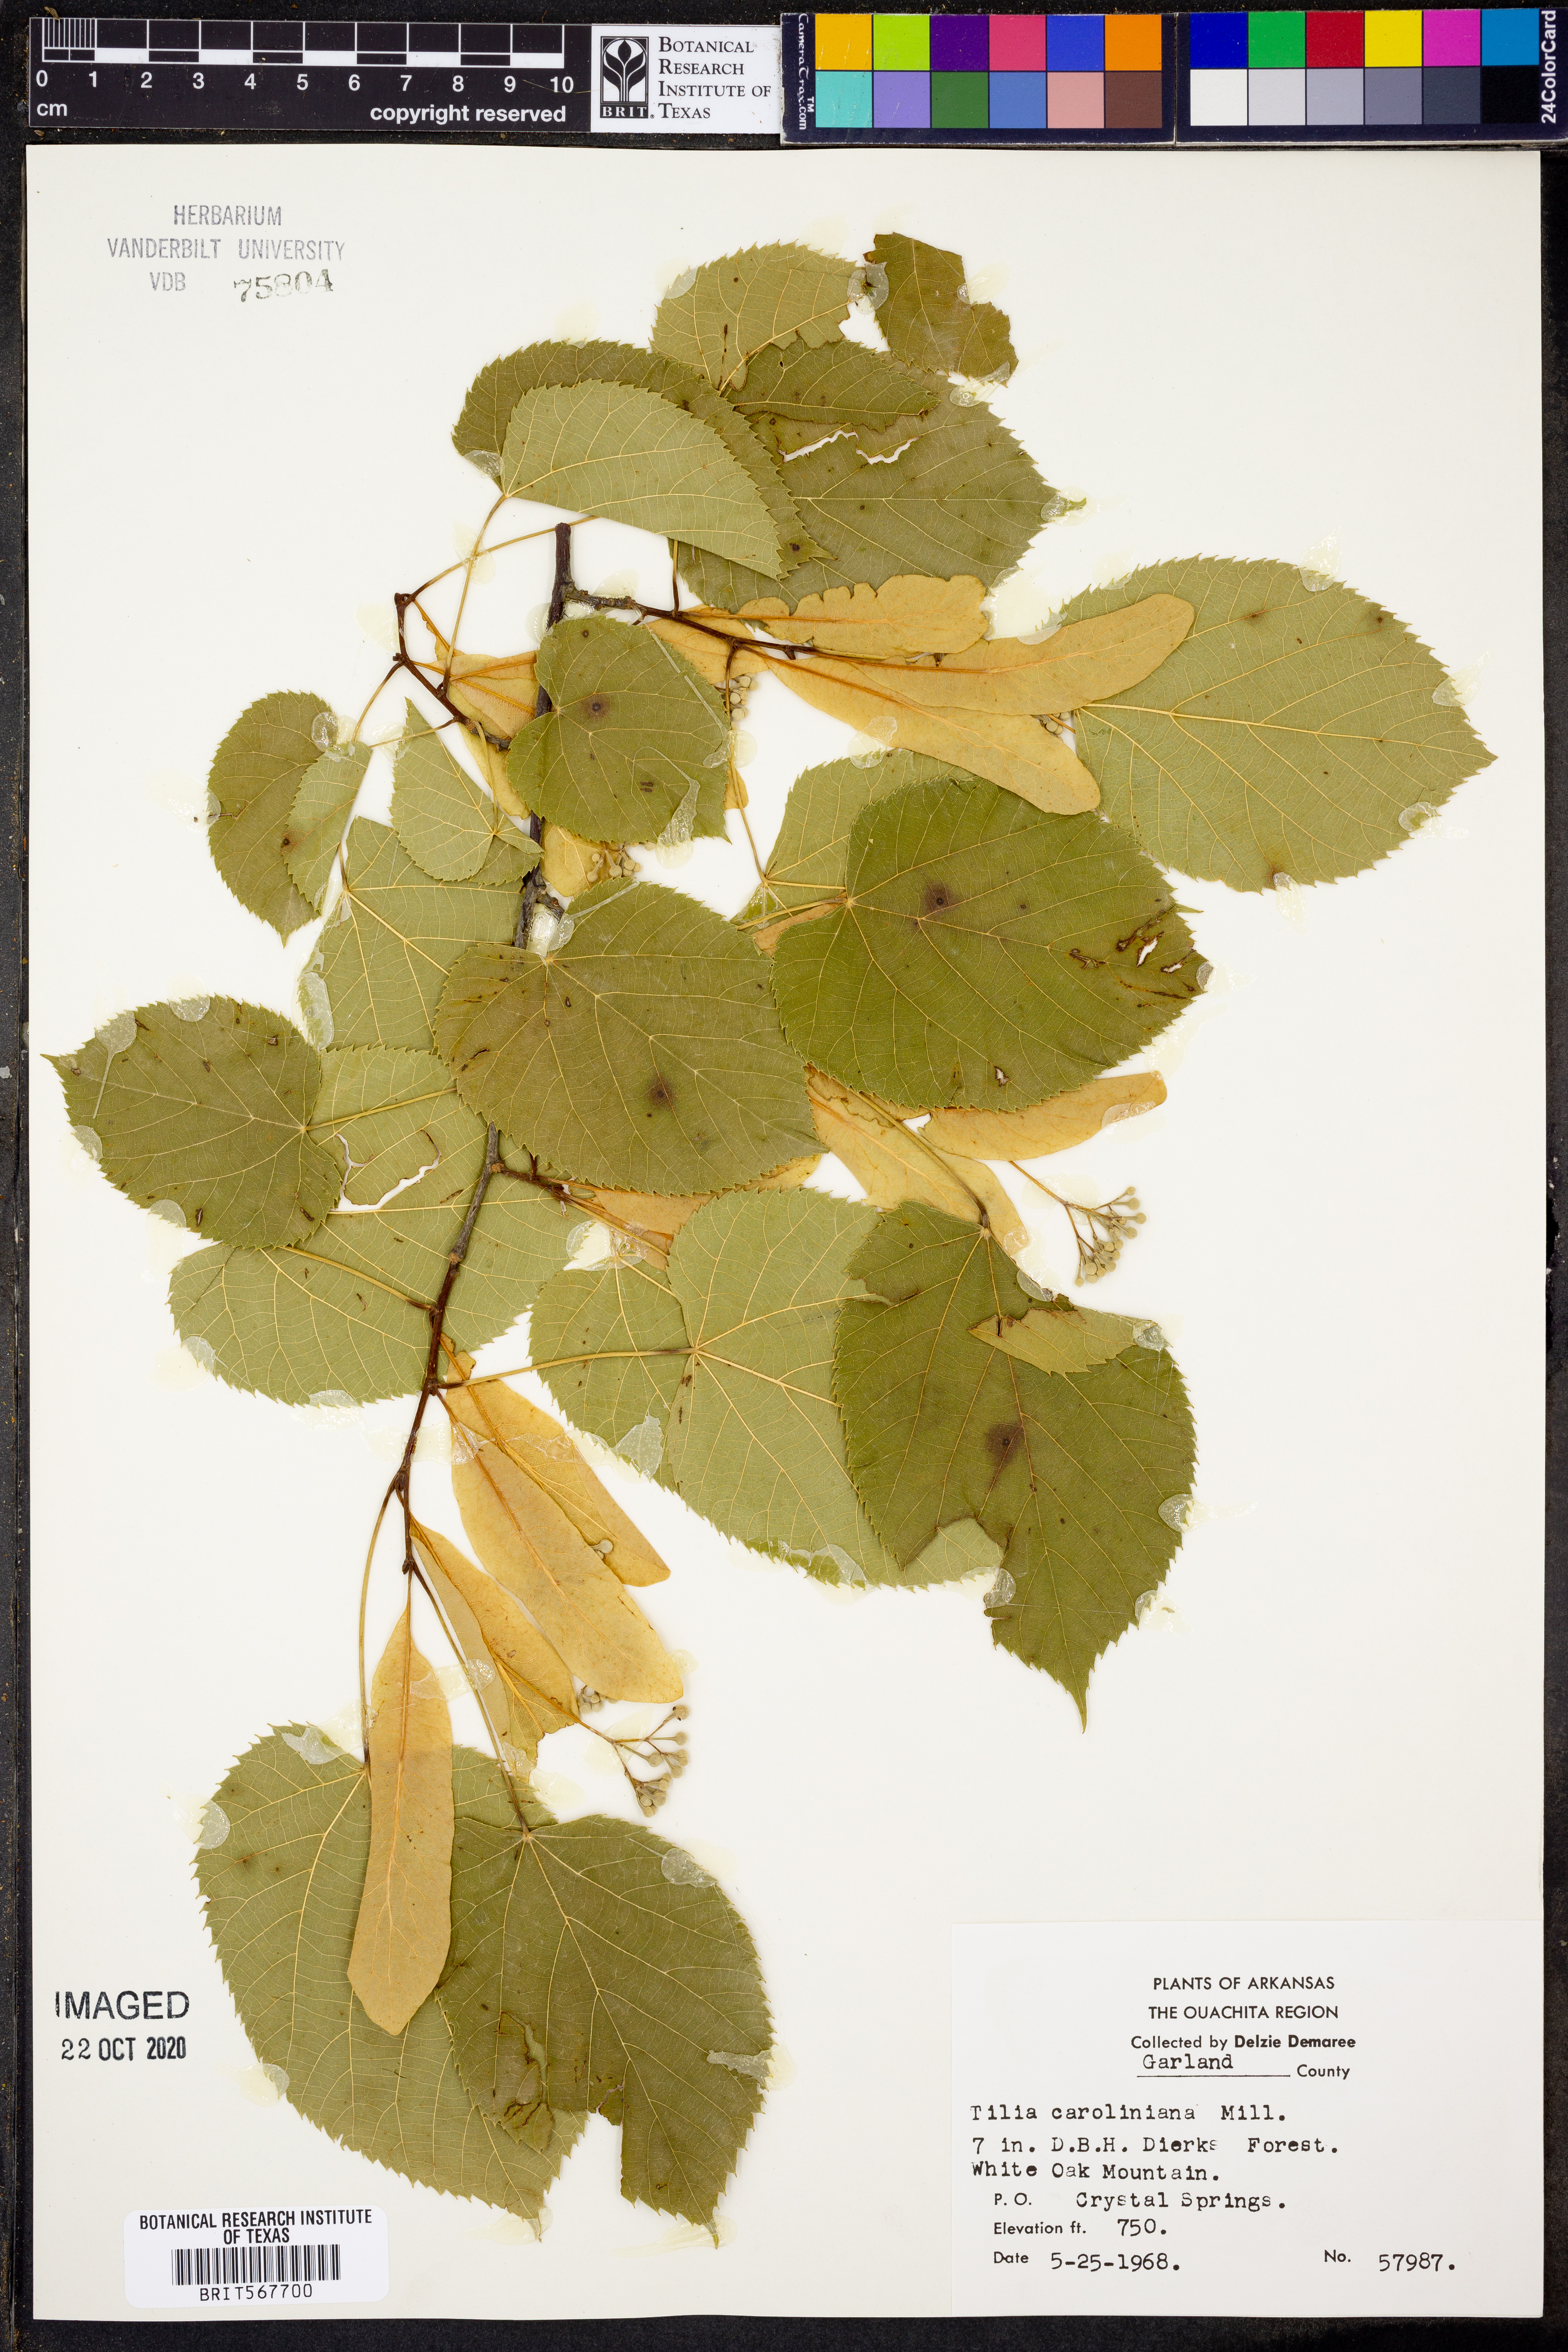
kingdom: Plantae
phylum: Tracheophyta
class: Magnoliopsida
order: Malvales
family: Malvaceae
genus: Tilia
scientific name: Tilia americana
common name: Basswood
